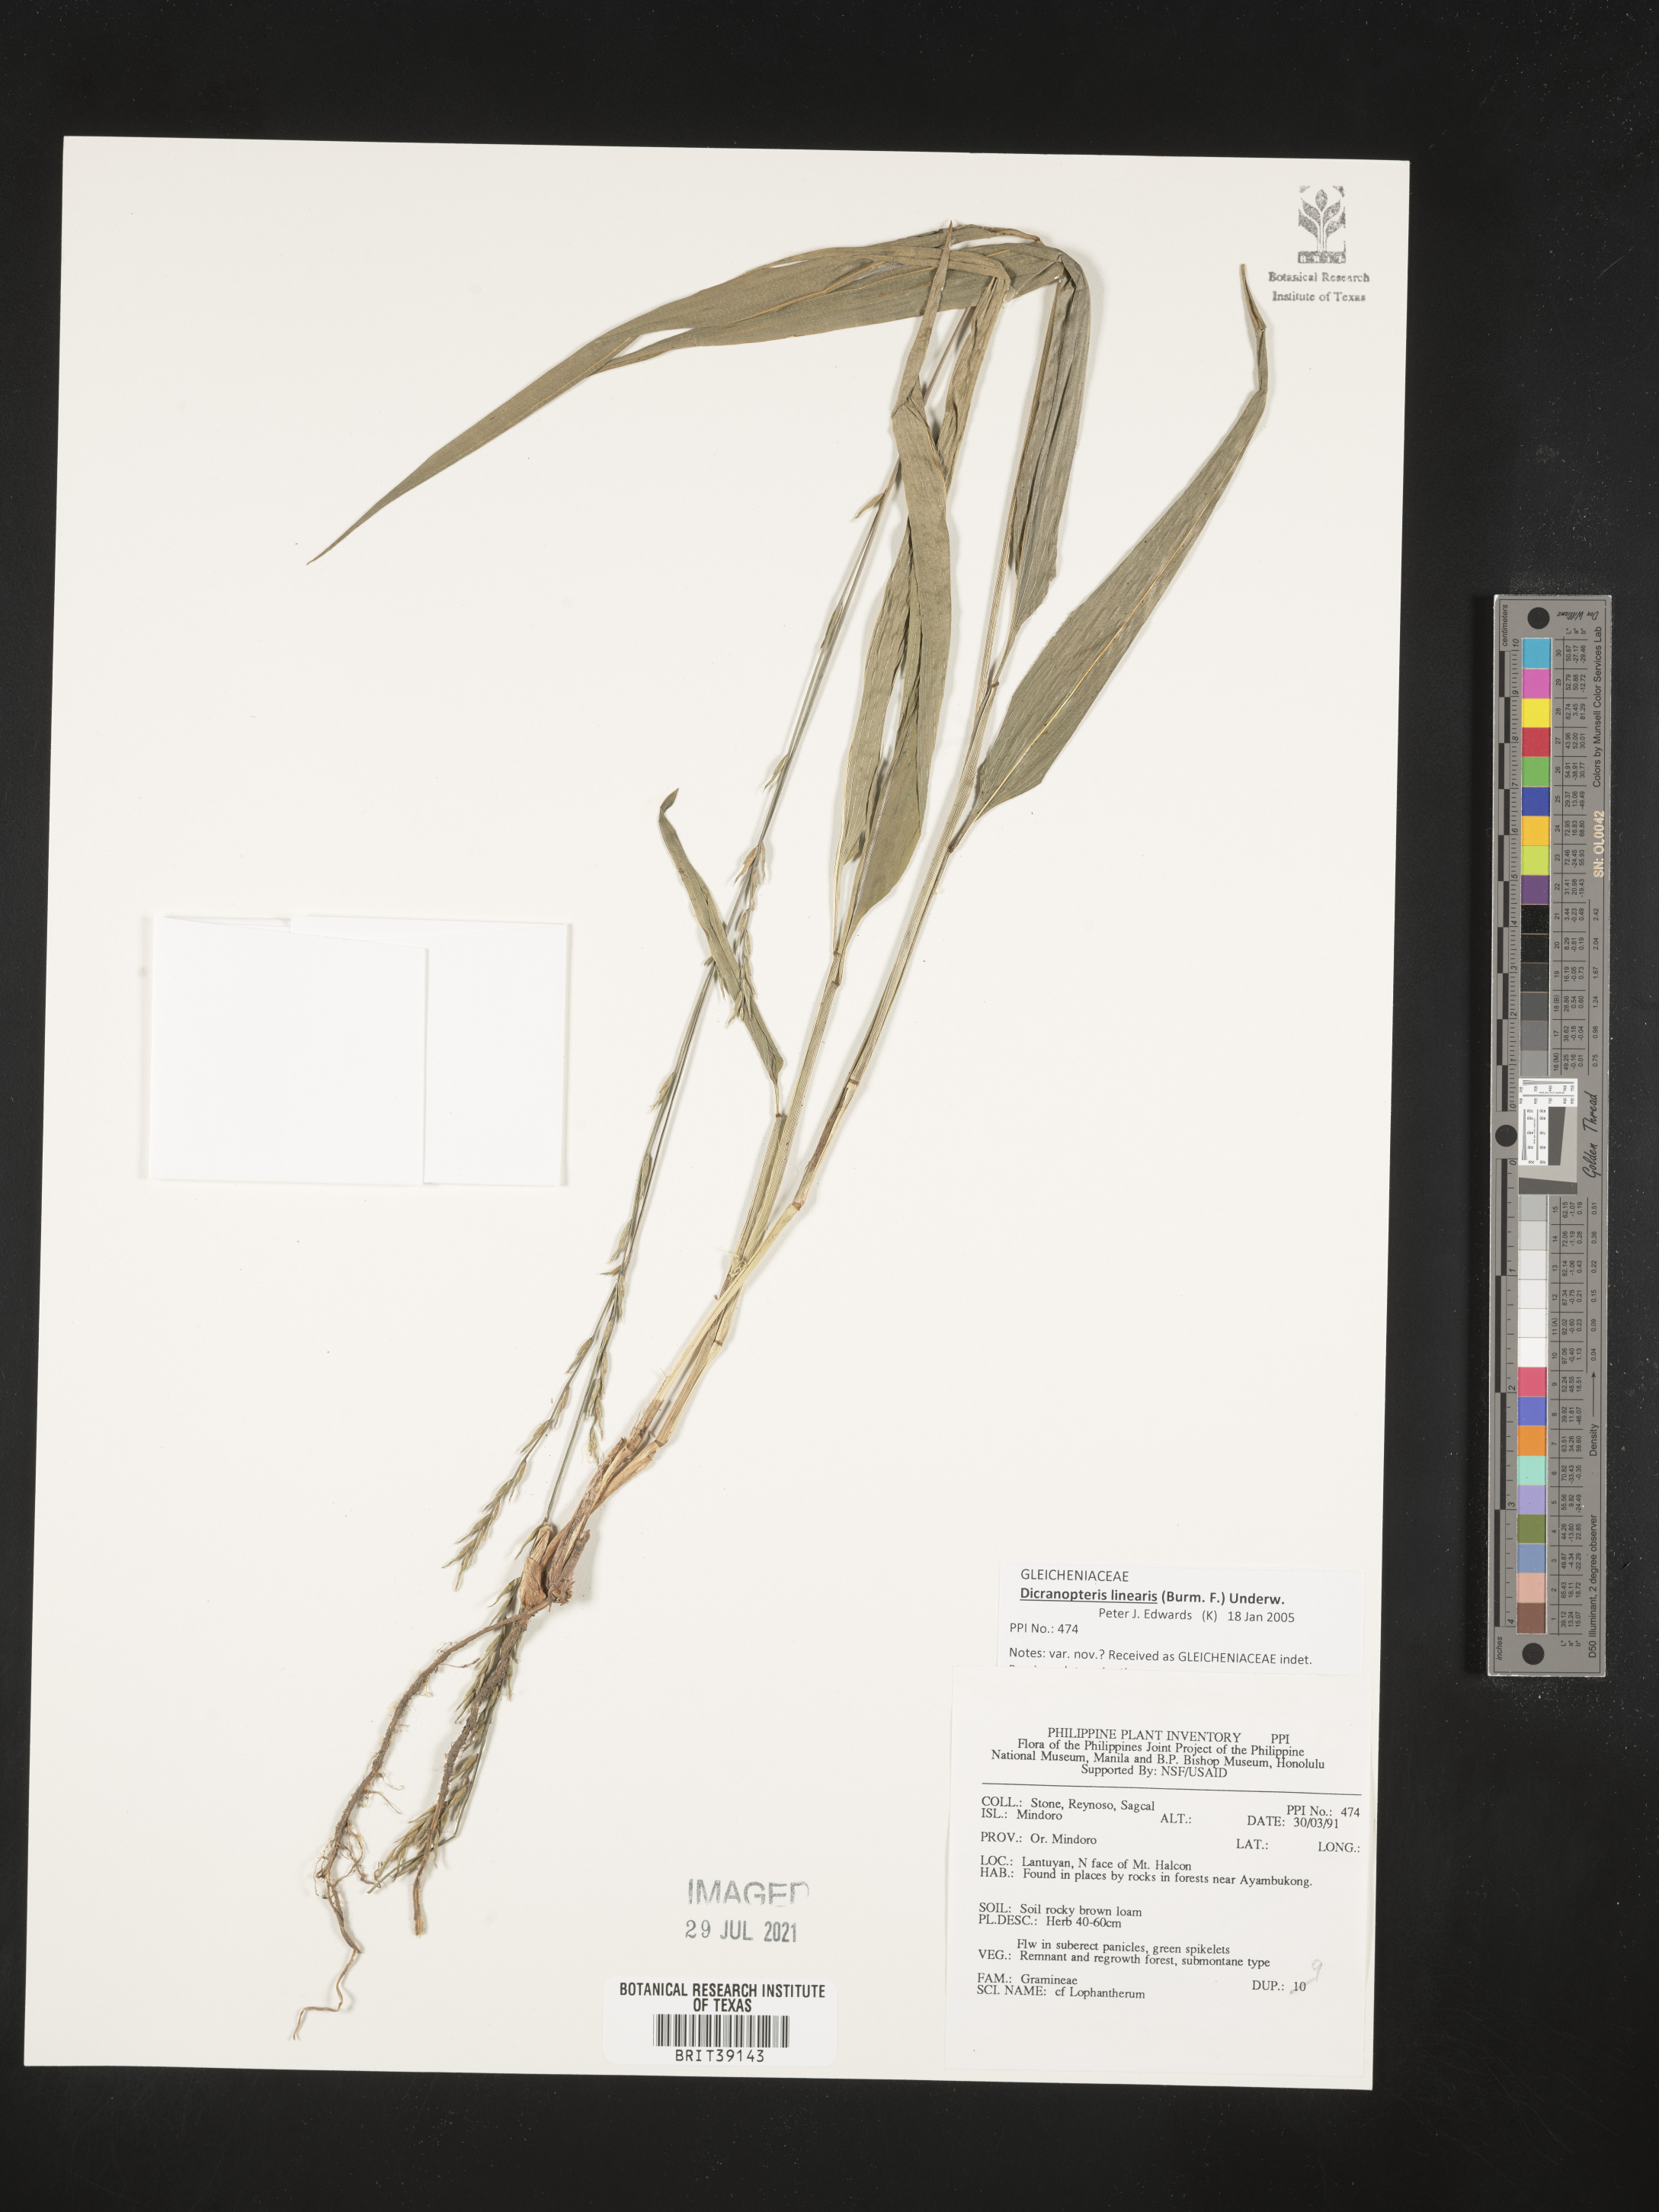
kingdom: Plantae
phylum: Tracheophyta
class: Liliopsida
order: Poales
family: Poaceae
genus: Lophatherum
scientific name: Lophatherum
